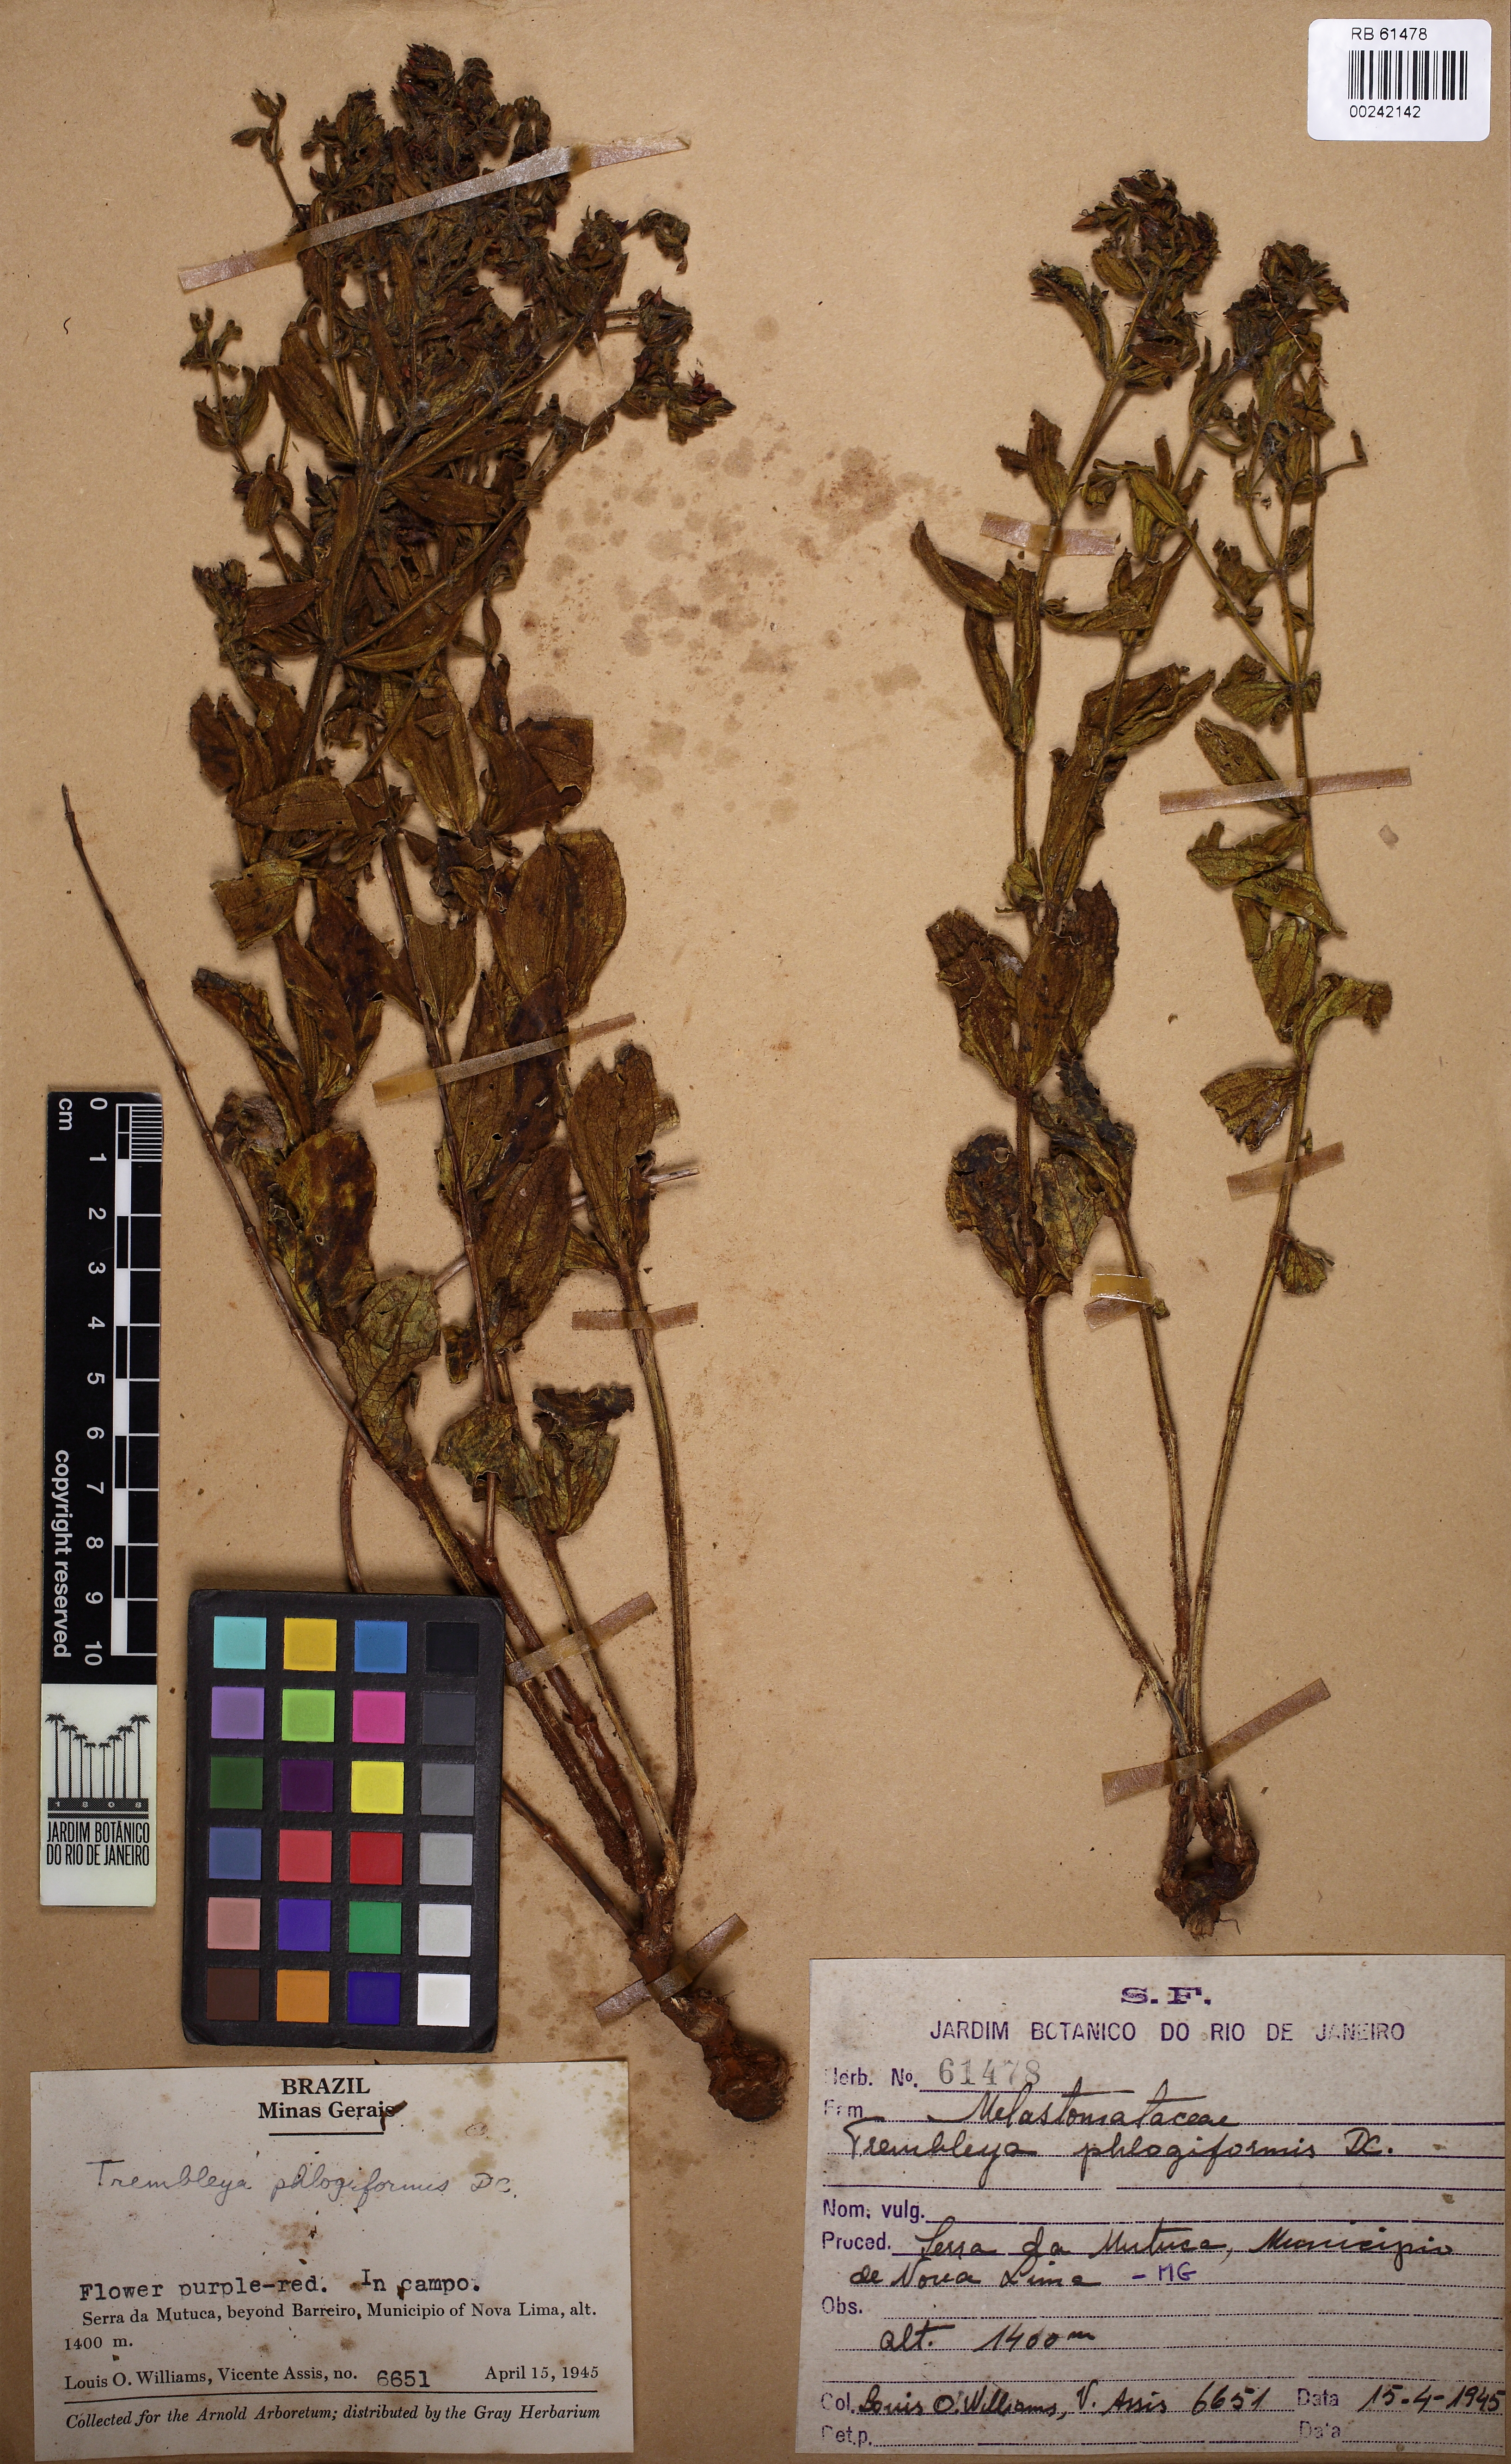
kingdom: Plantae
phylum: Tracheophyta
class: Magnoliopsida
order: Myrtales
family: Melastomataceae
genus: Microlicia
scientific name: Microlicia phlogiformis
